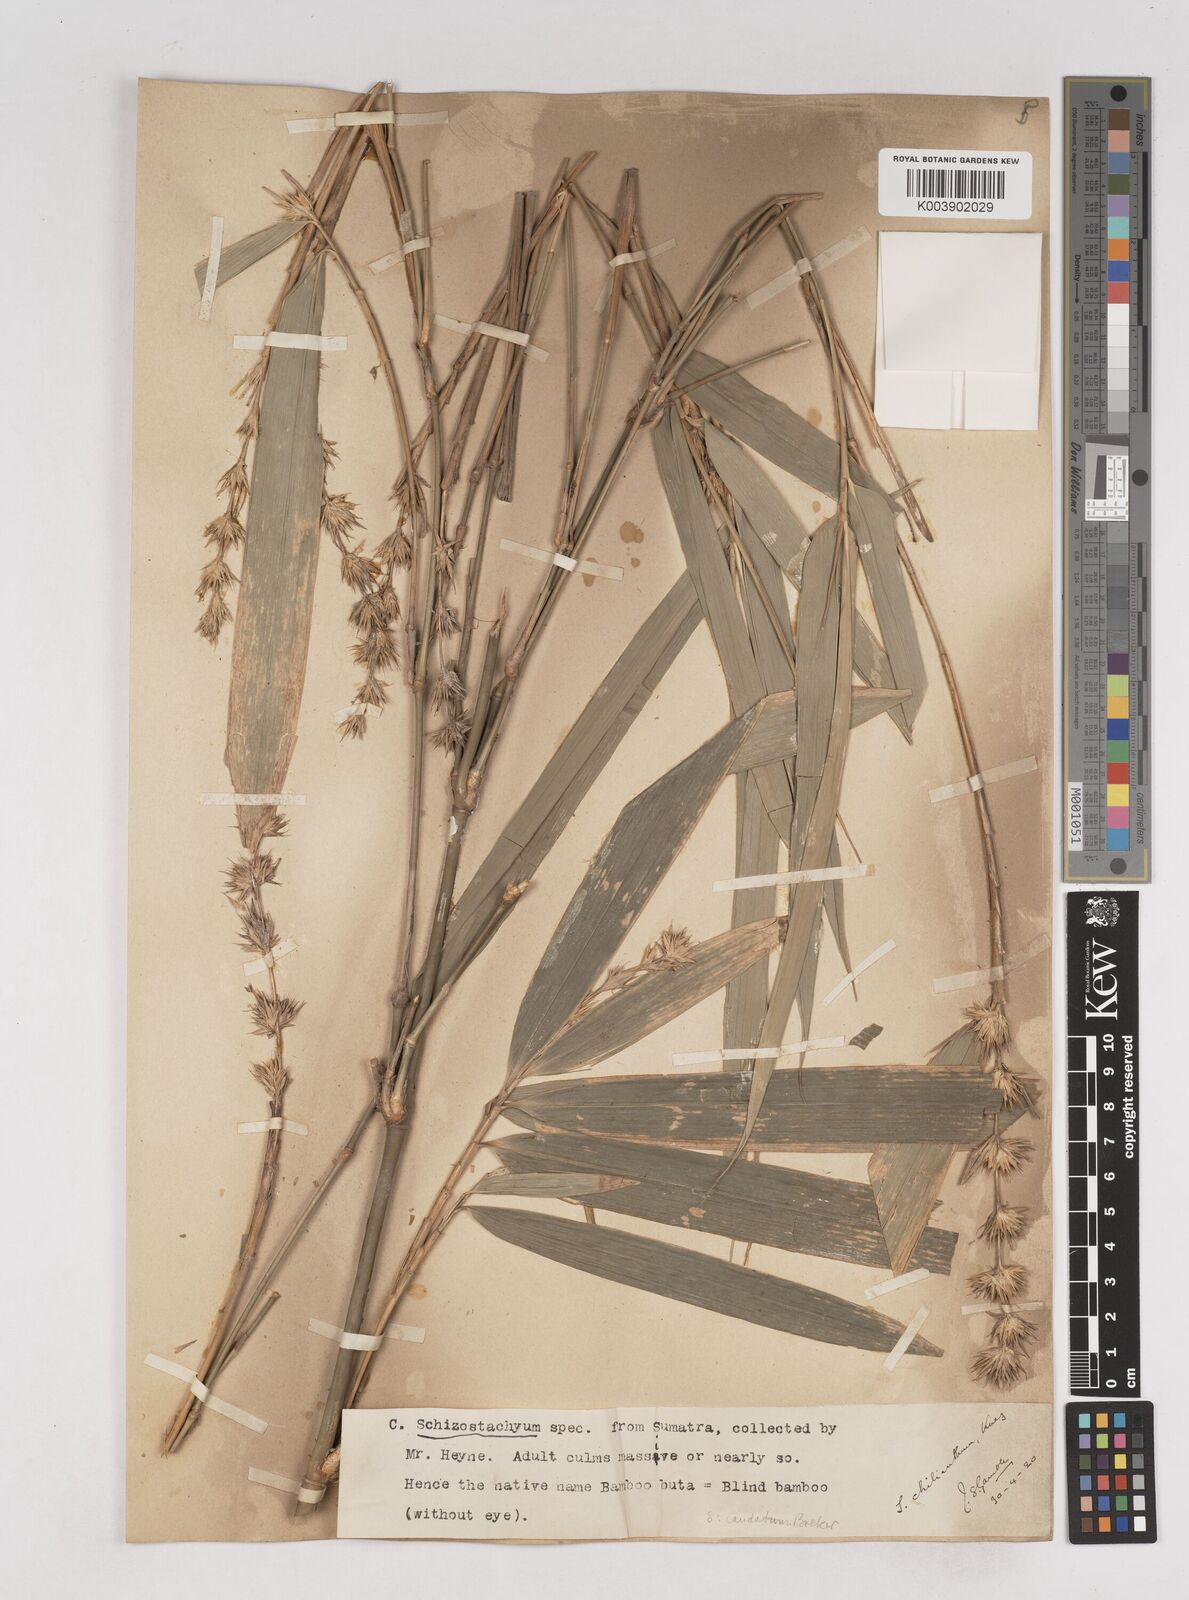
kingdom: Plantae
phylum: Tracheophyta
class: Liliopsida
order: Poales
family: Poaceae
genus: Schizostachyum
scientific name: Schizostachyum caudatum
